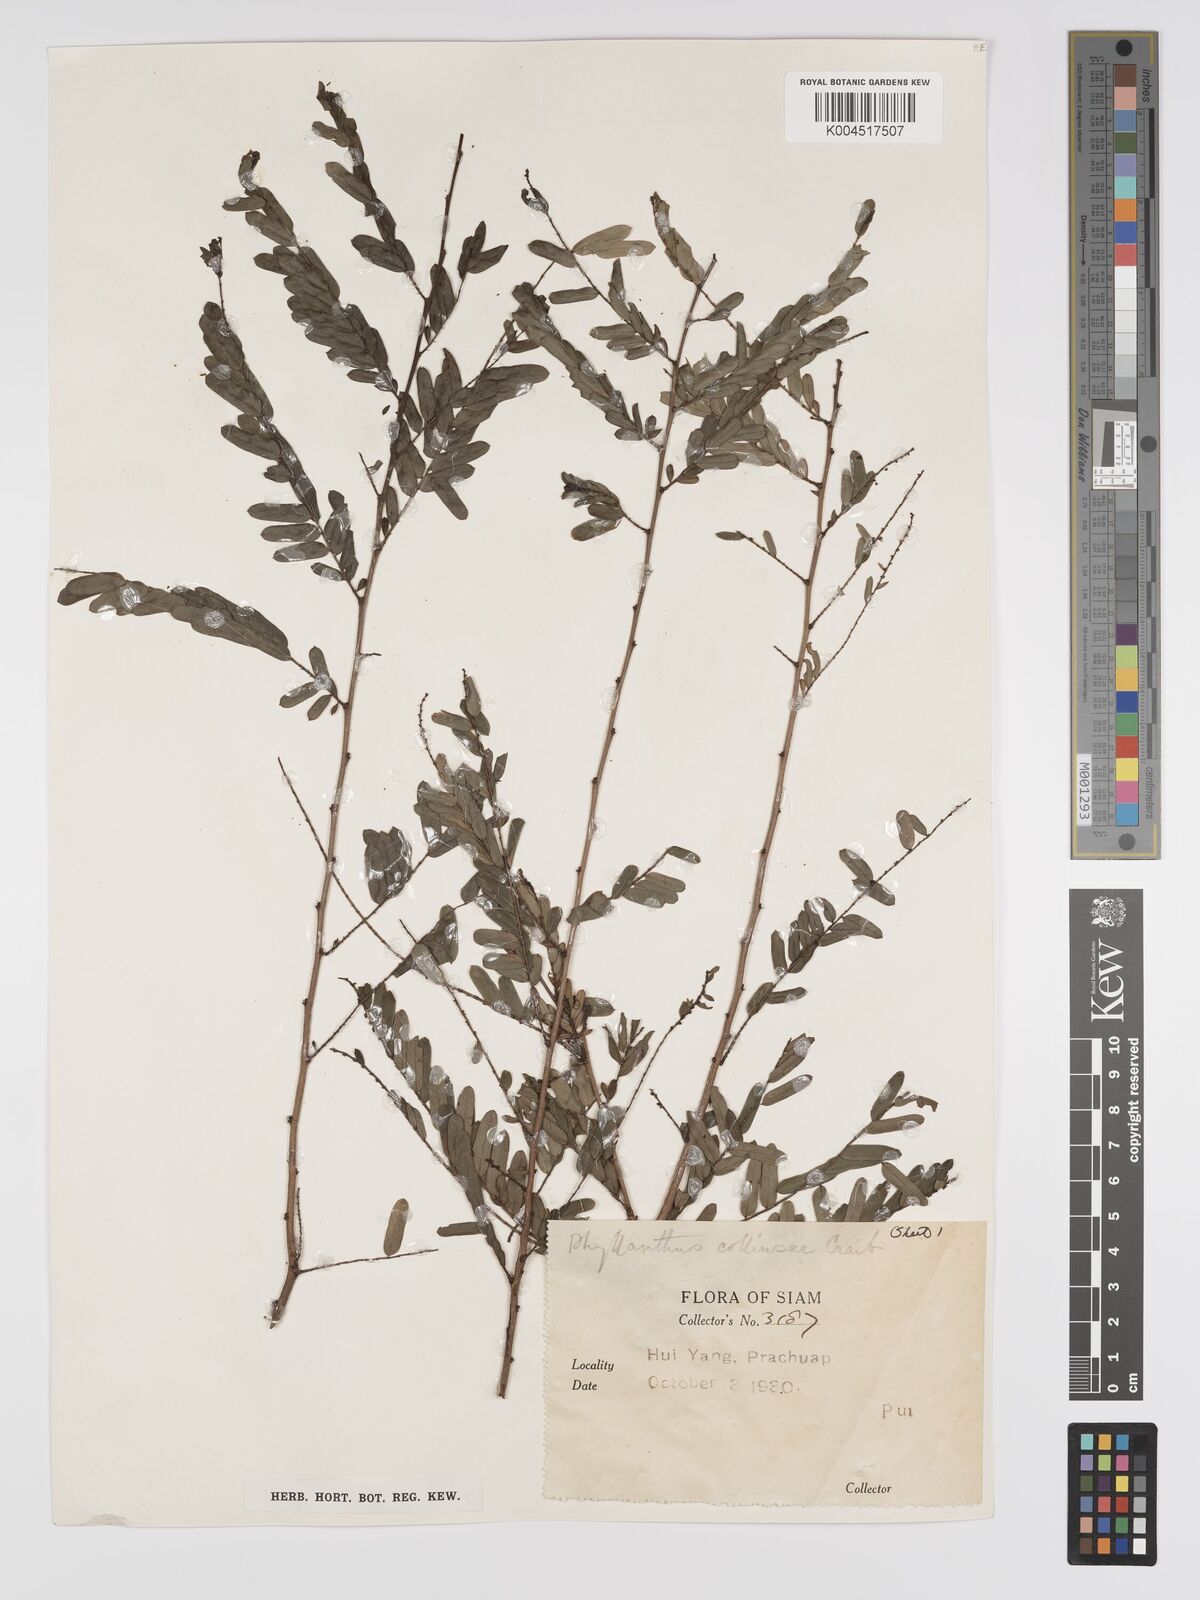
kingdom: Plantae
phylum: Tracheophyta
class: Magnoliopsida
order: Malpighiales
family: Phyllanthaceae
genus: Phyllanthus
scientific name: Phyllanthus collinsiae
